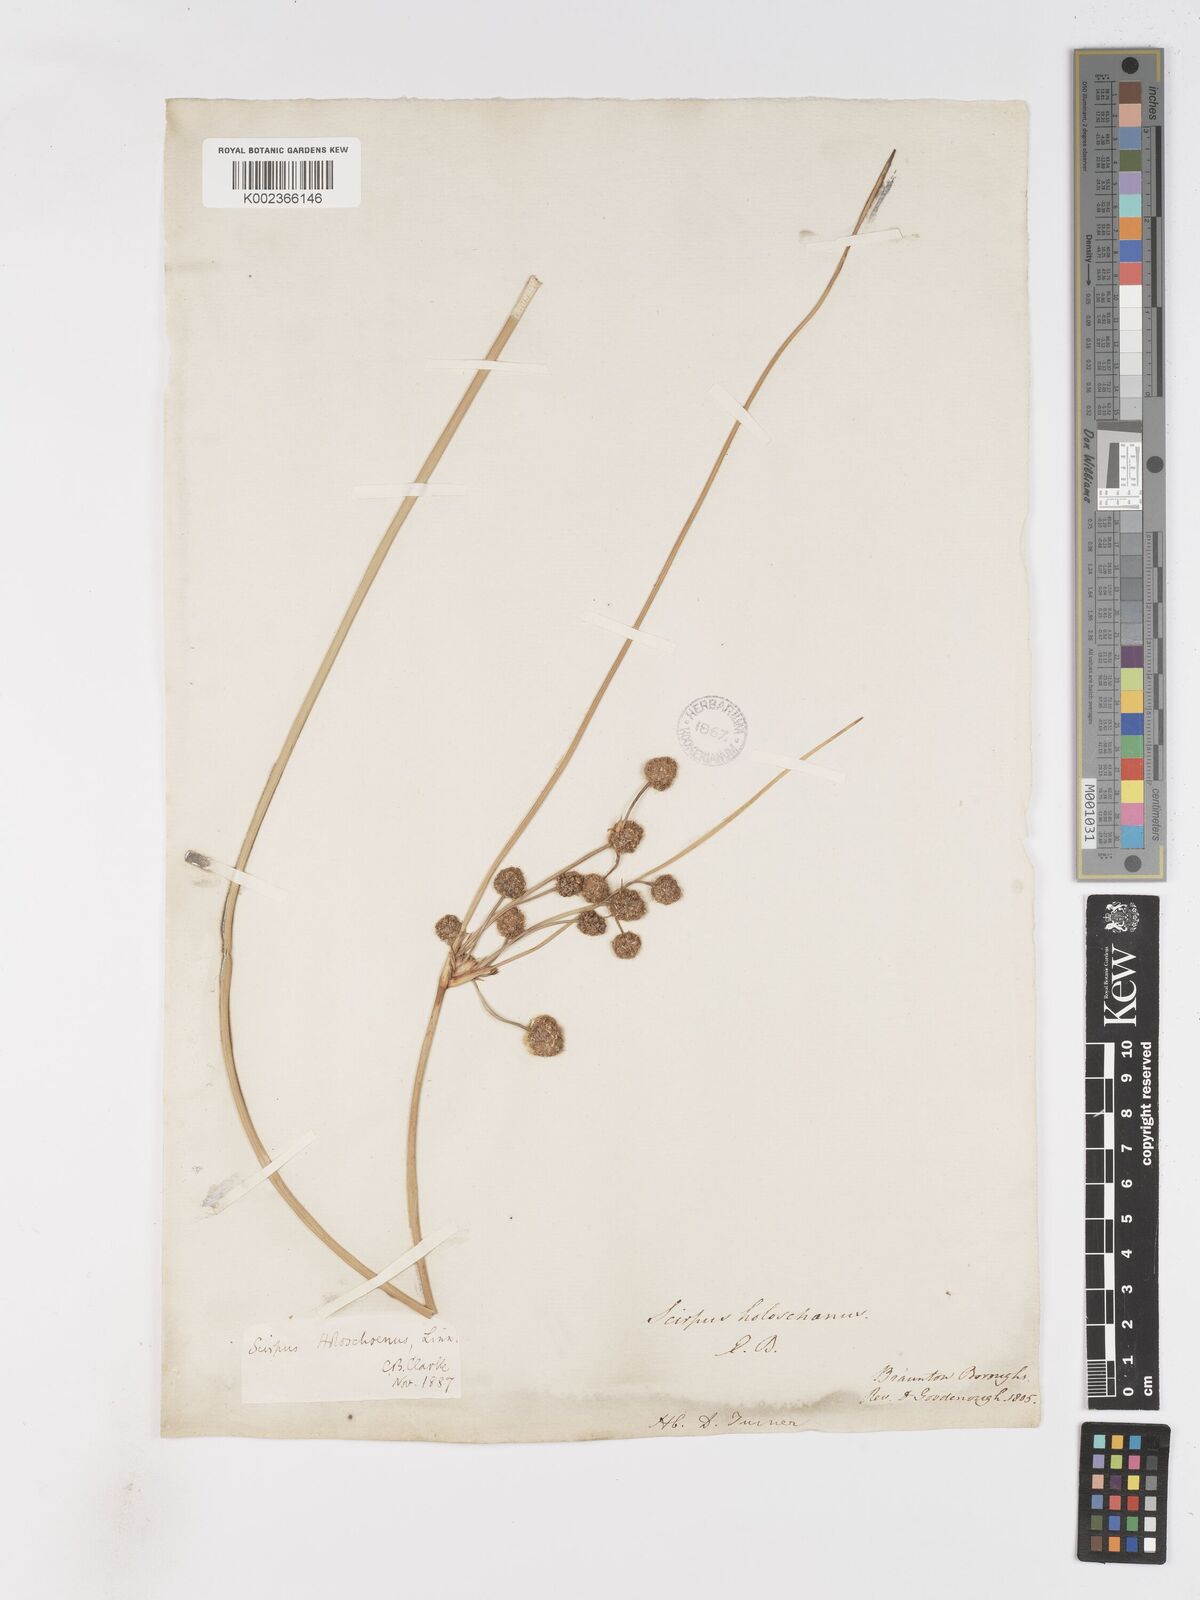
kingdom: Plantae
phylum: Tracheophyta
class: Liliopsida
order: Poales
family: Cyperaceae
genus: Scirpoides
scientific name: Scirpoides holoschoenus
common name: Round-headed club-rush
